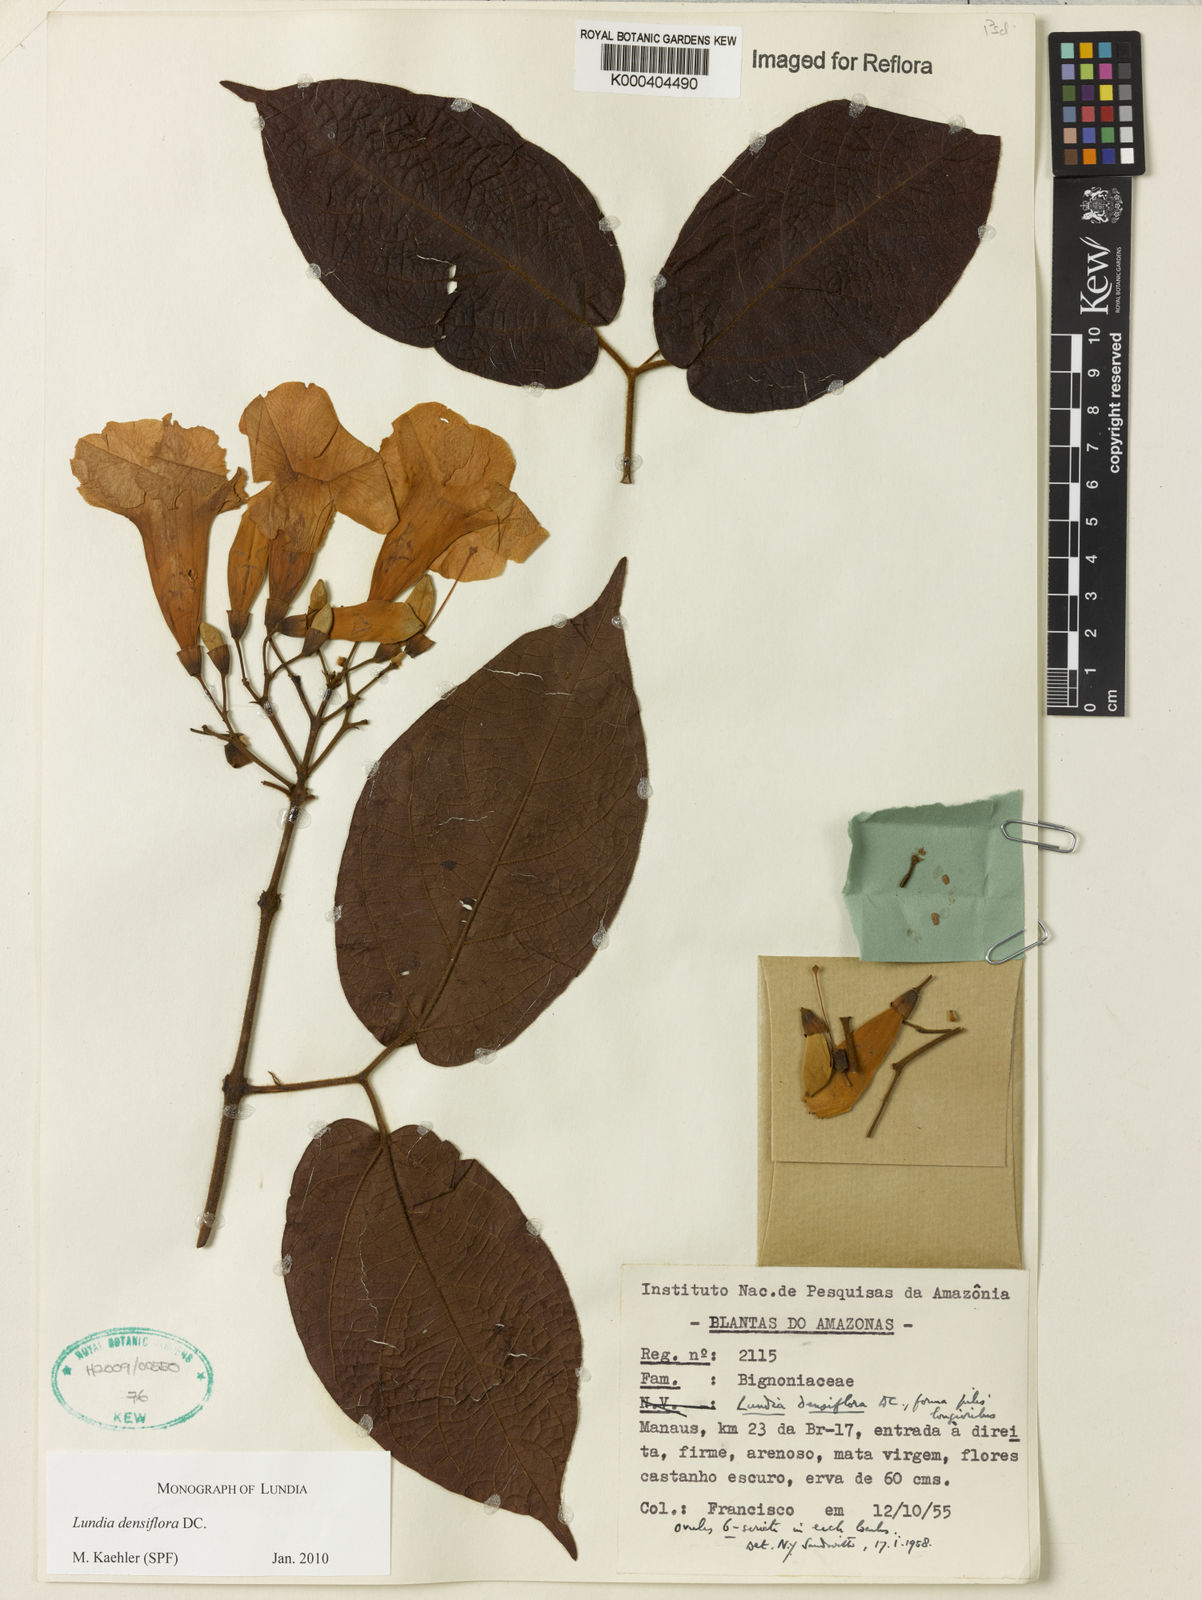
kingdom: Plantae
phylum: Tracheophyta
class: Magnoliopsida
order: Lamiales
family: Bignoniaceae
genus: Lundia
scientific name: Lundia densiflora
